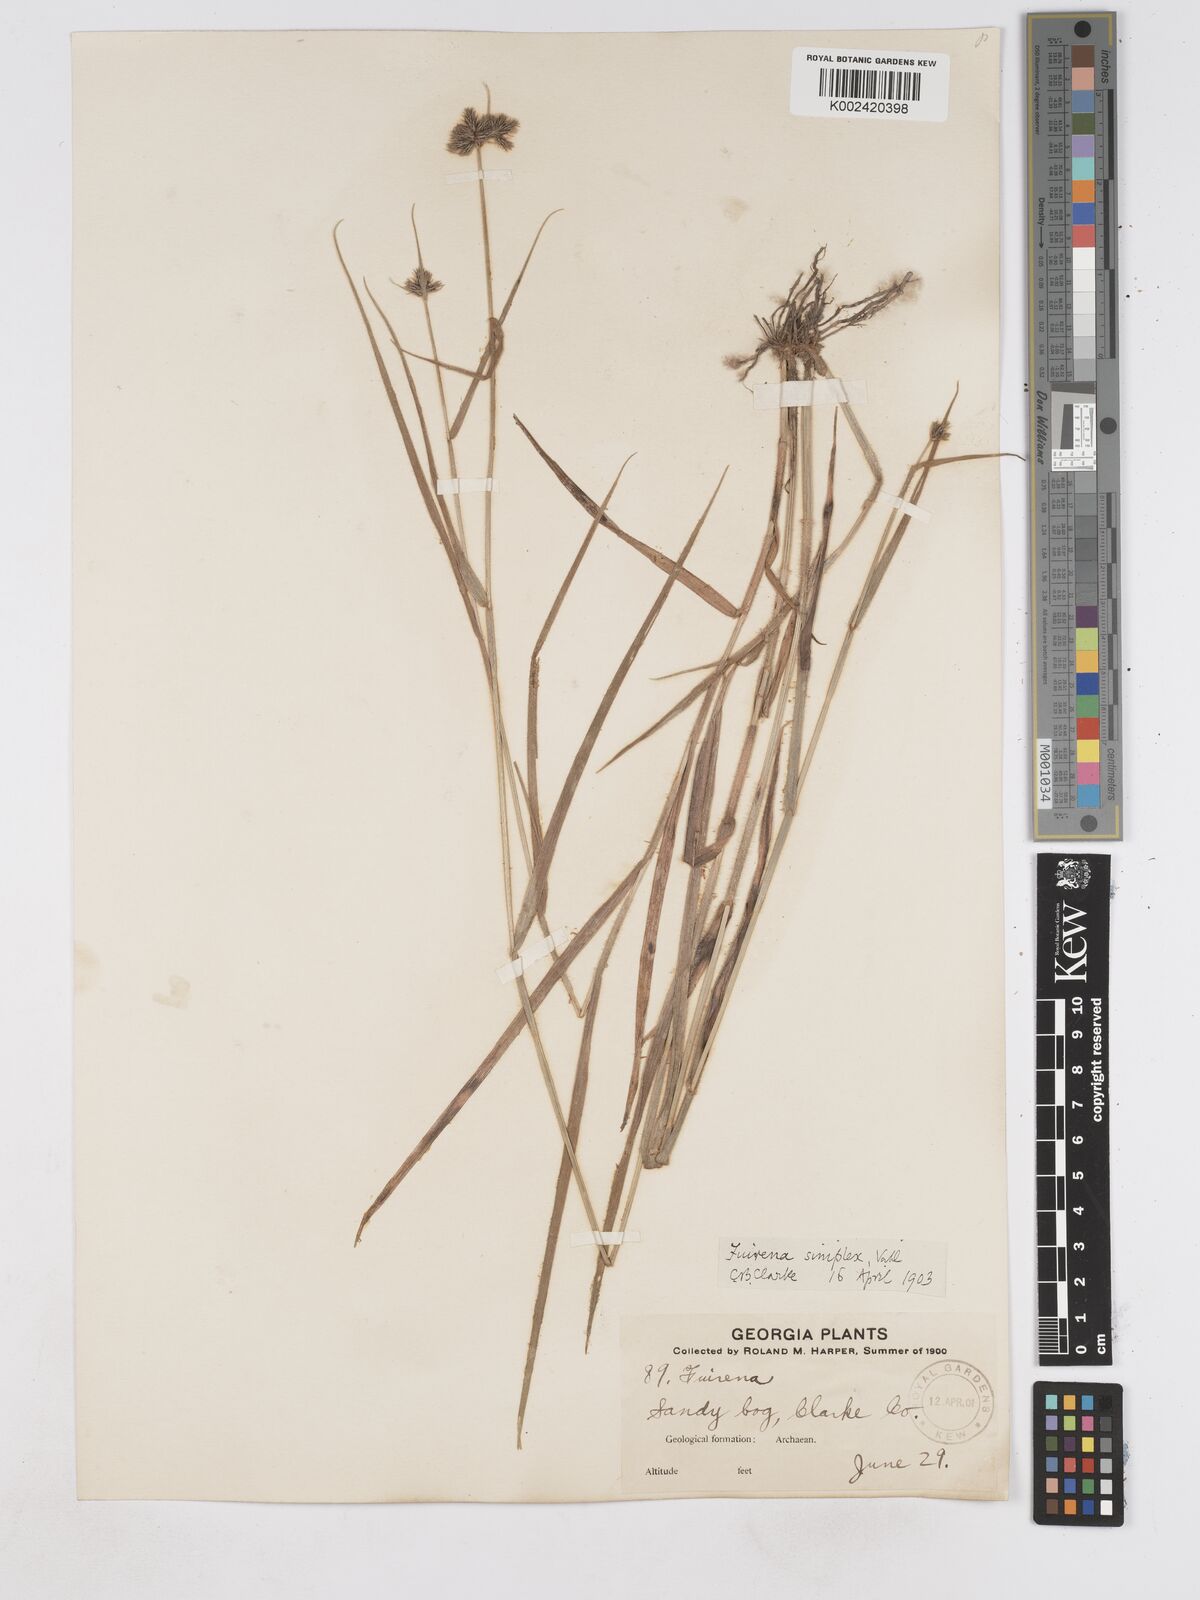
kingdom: Plantae
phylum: Tracheophyta
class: Liliopsida
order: Poales
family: Cyperaceae
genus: Fuirena
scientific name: Fuirena simplex
